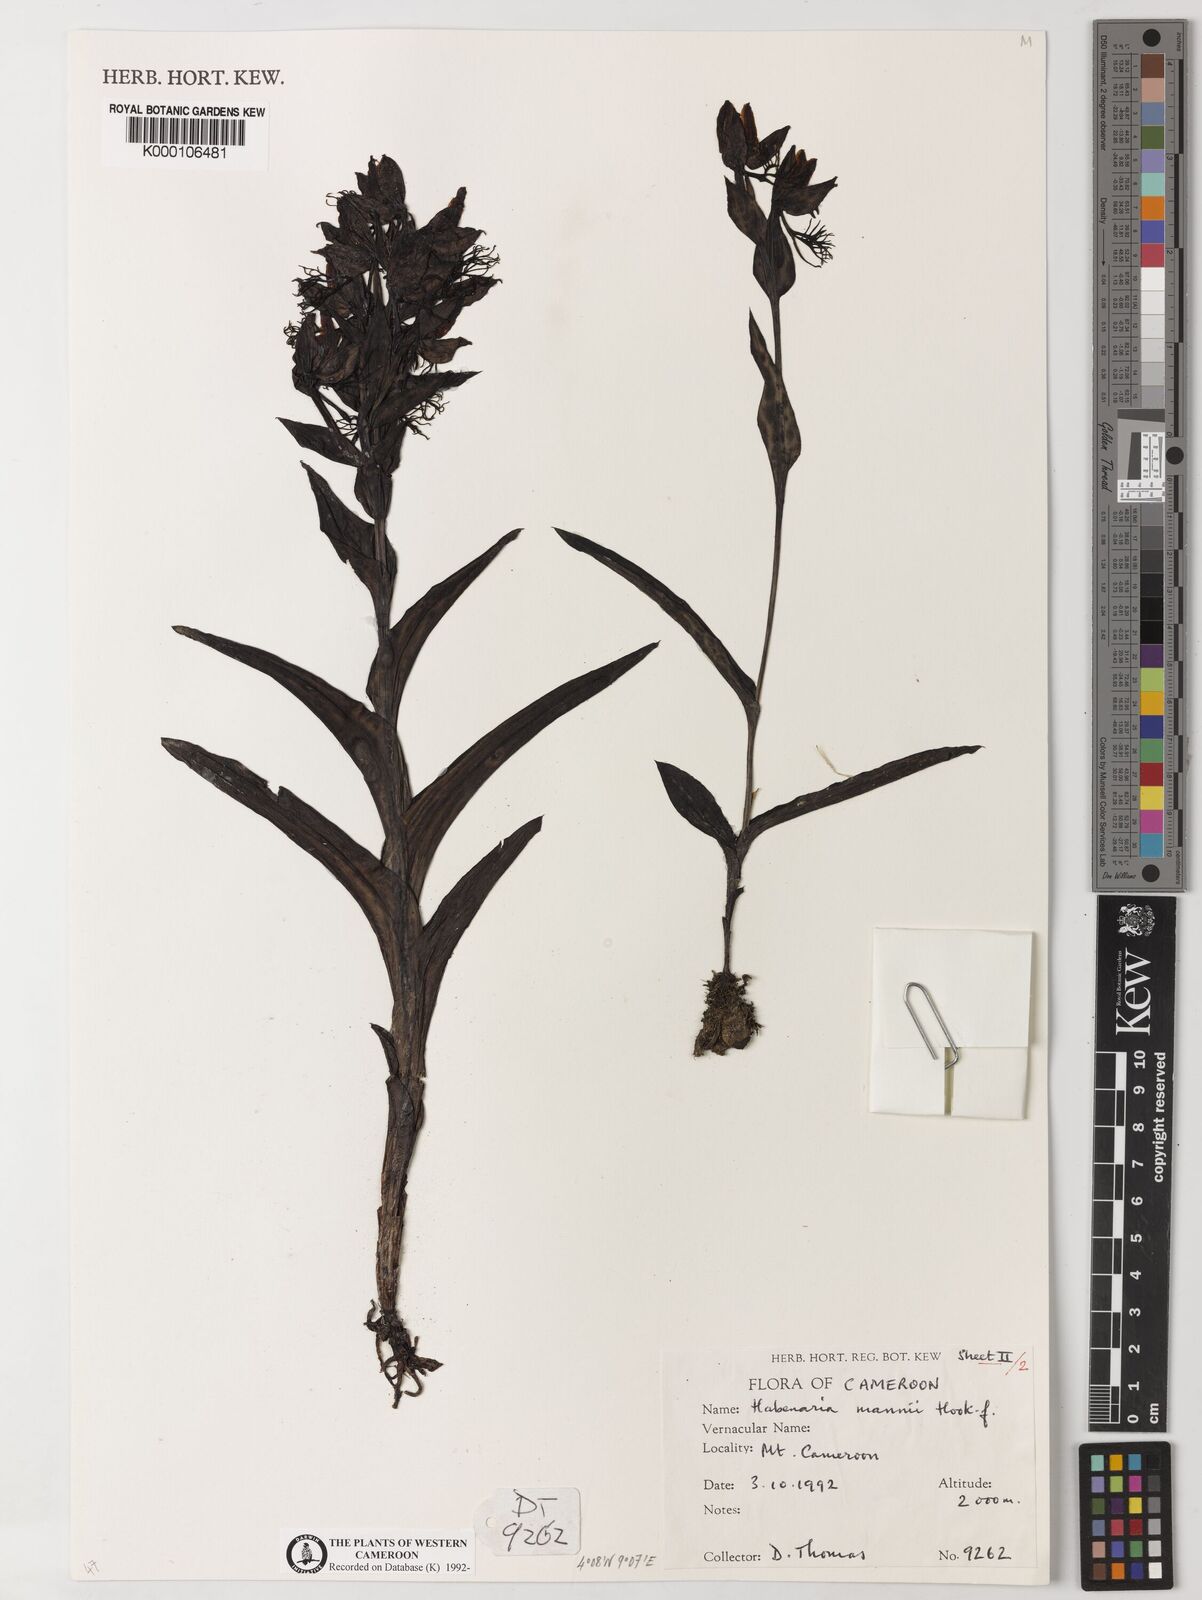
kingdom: Plantae
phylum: Tracheophyta
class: Liliopsida
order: Asparagales
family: Orchidaceae
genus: Habenaria
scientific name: Habenaria mannii
